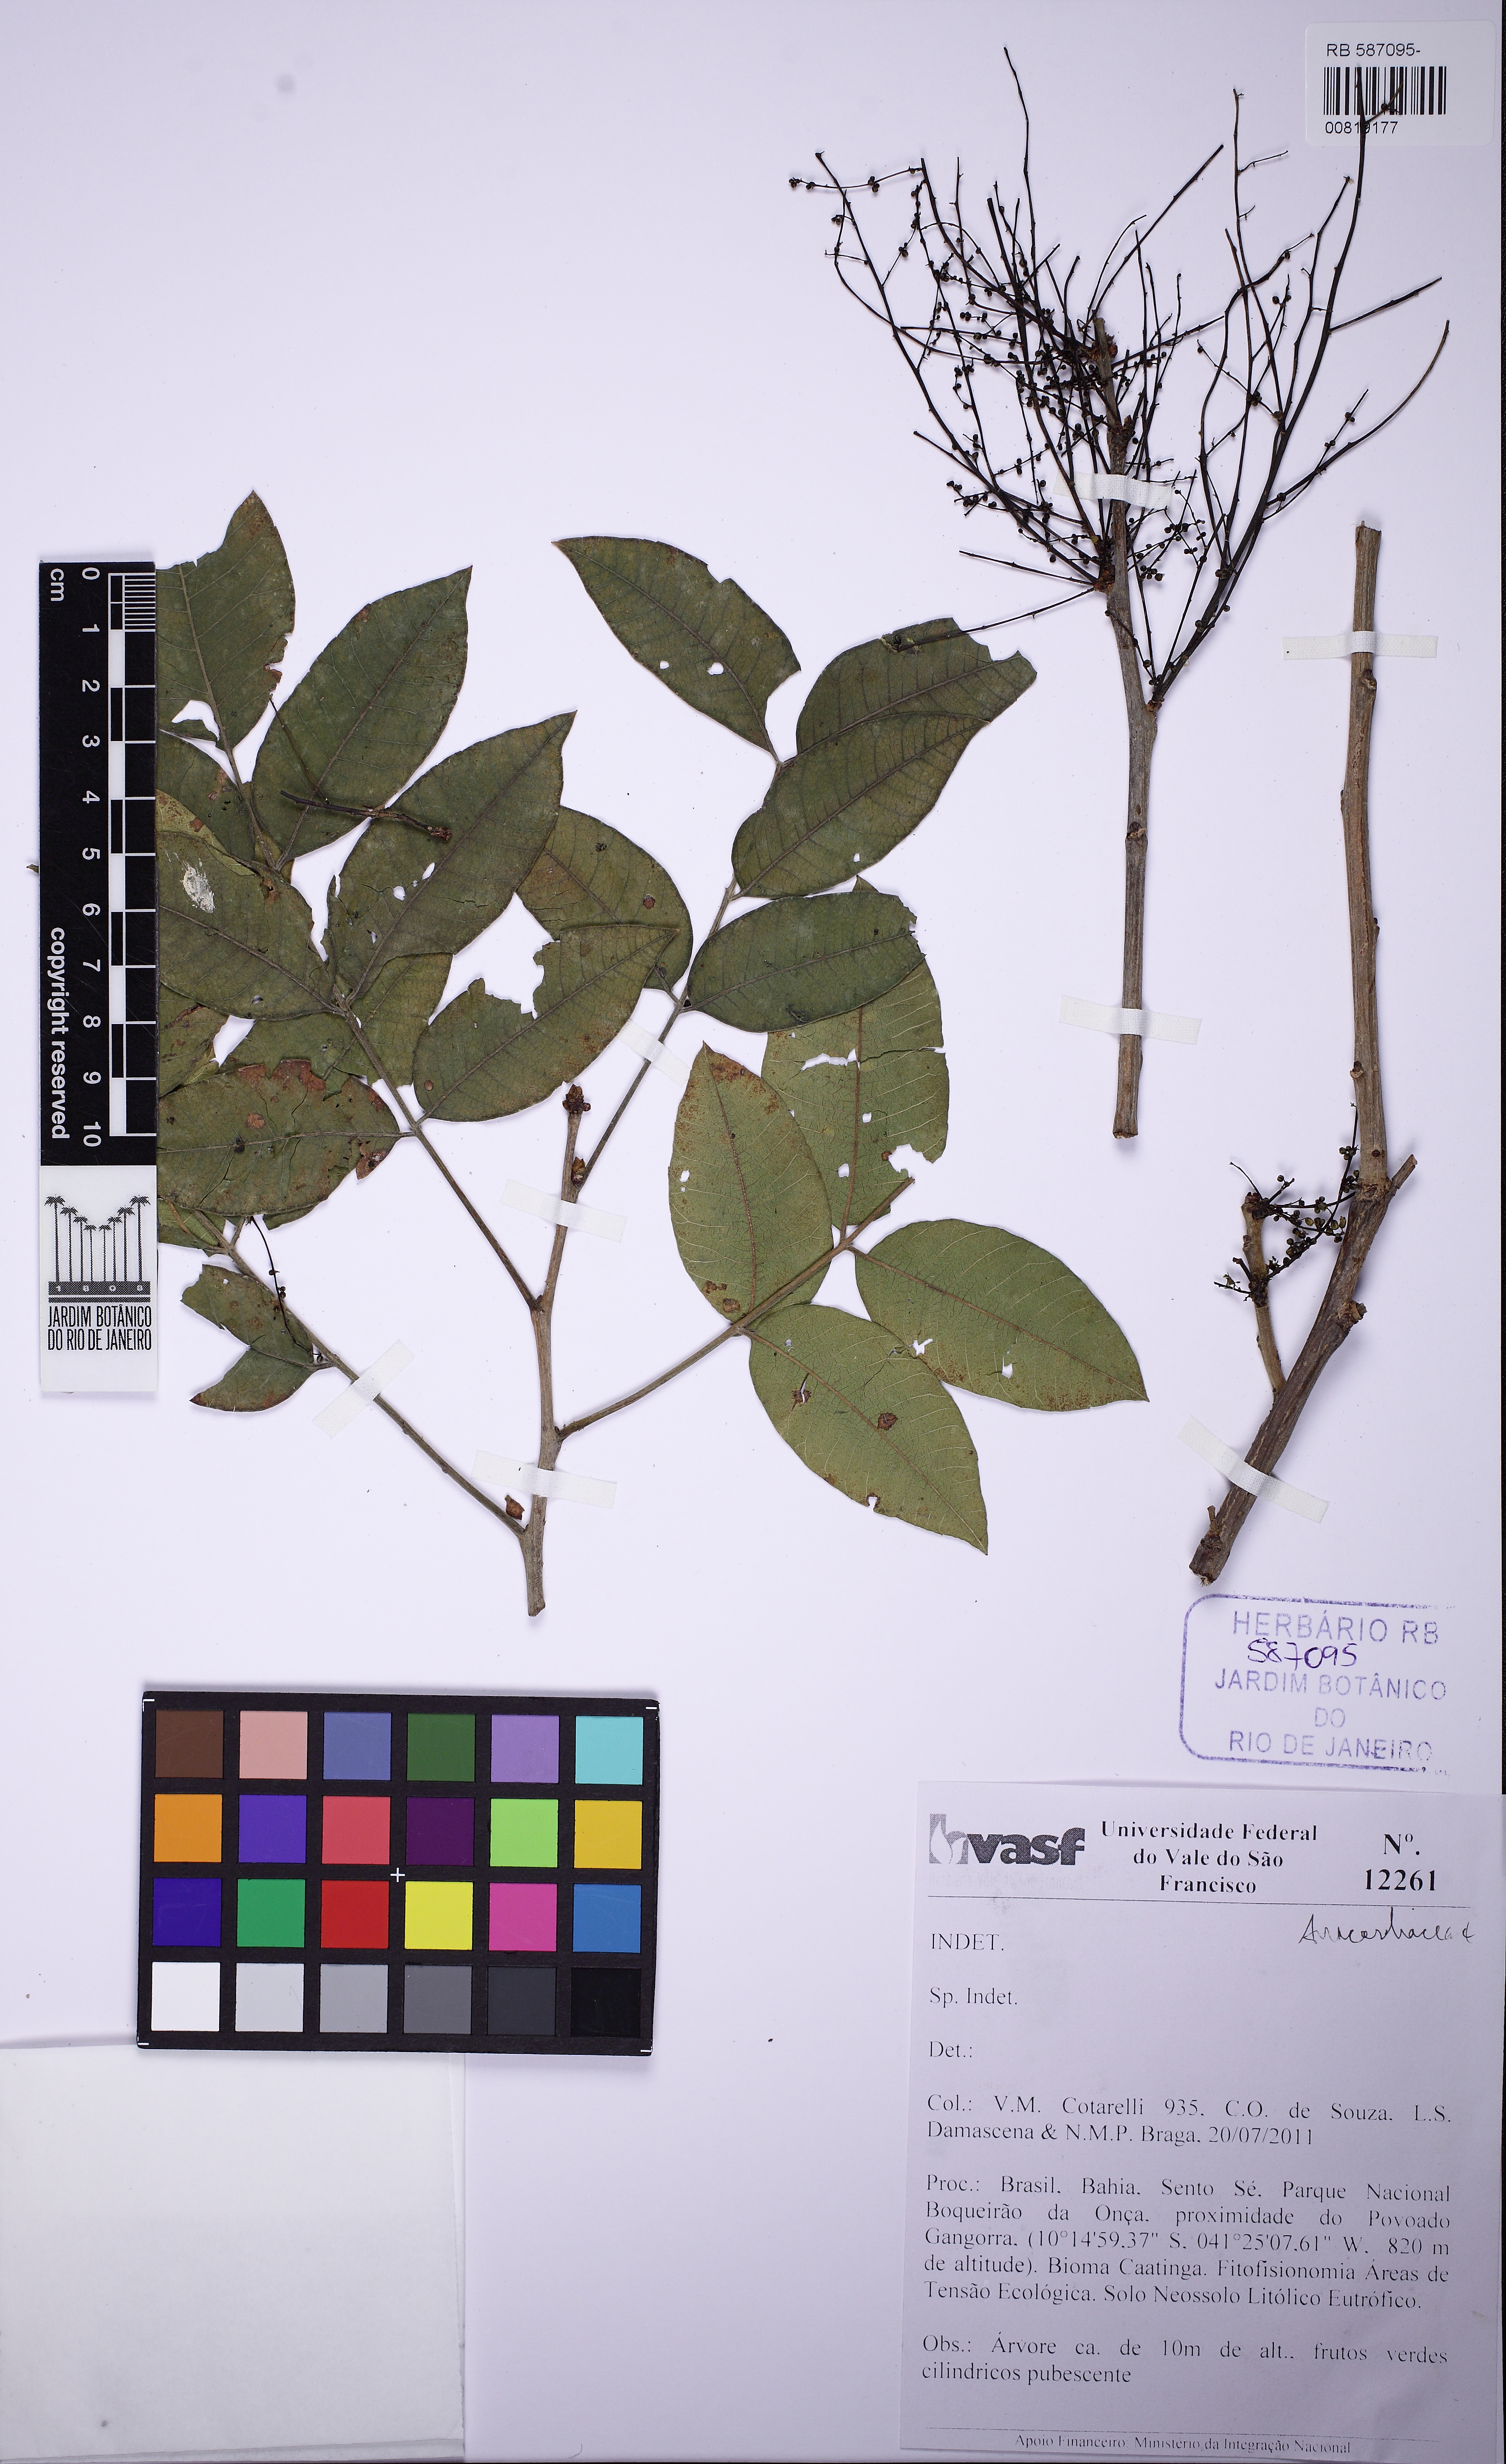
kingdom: Plantae
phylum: Tracheophyta
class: Magnoliopsida
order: Sapindales
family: Anacardiaceae
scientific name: Anacardiaceae
